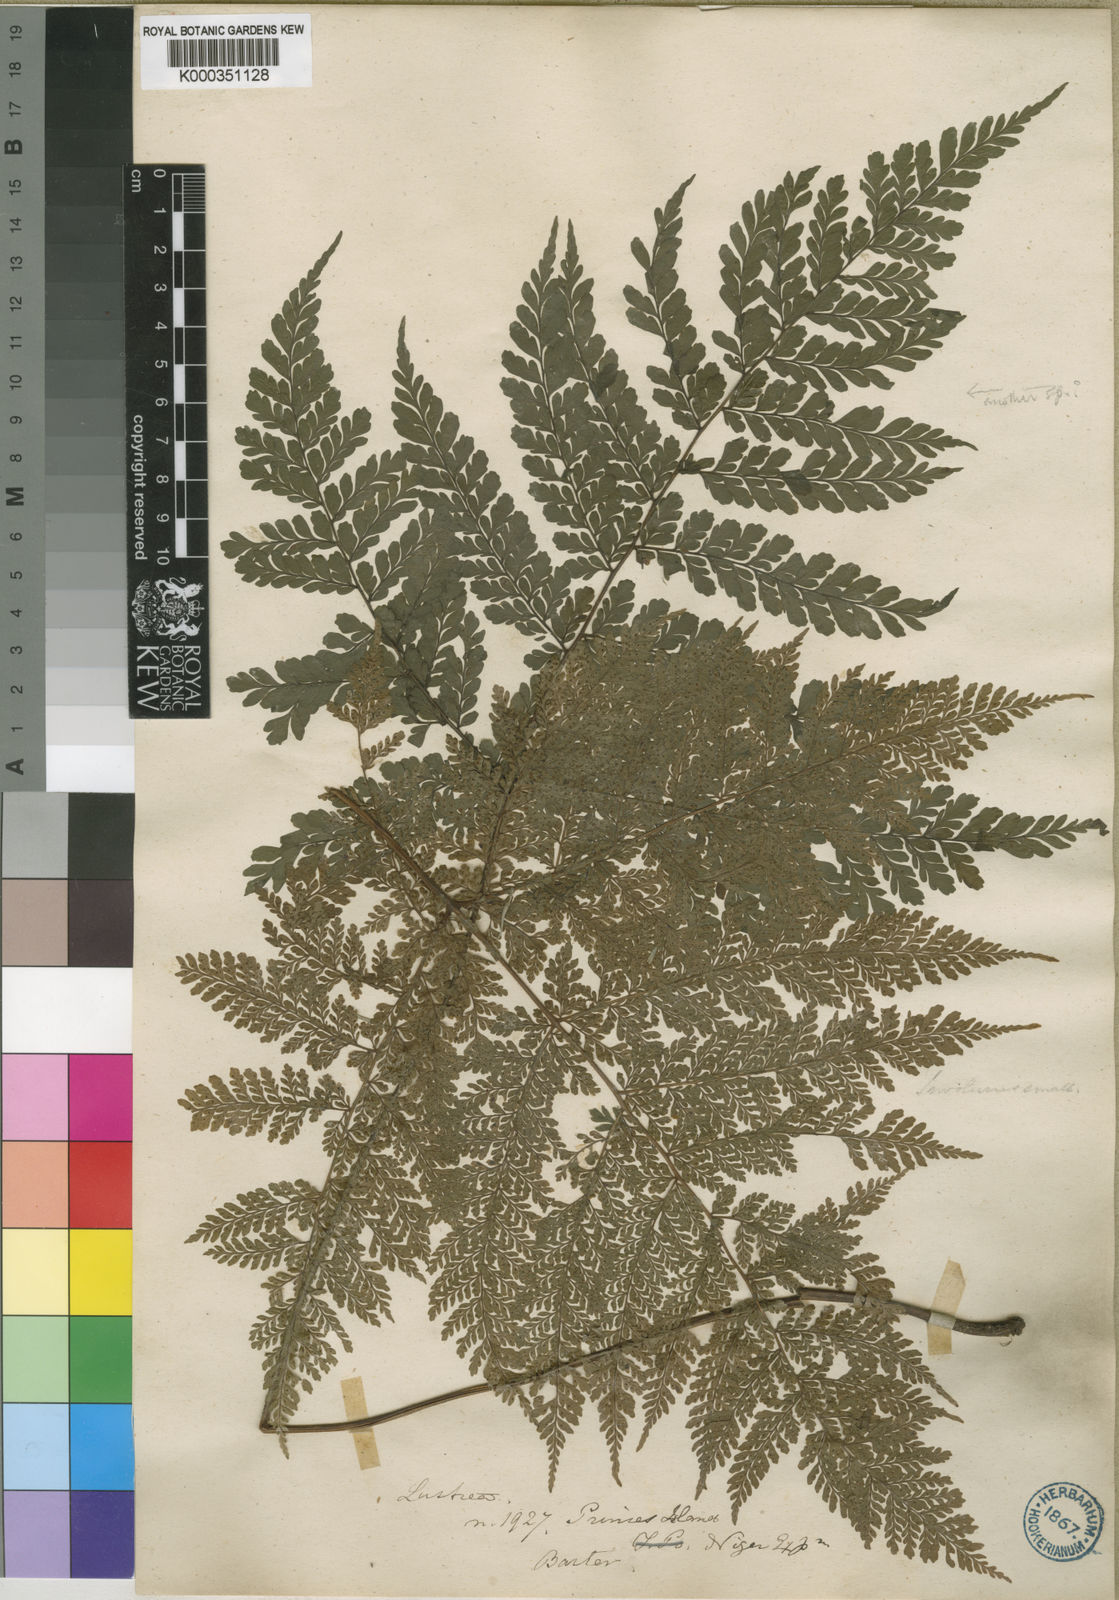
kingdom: Plantae
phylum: Tracheophyta
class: Polypodiopsida
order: Polypodiales
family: Tectariaceae
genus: Triplophyllum
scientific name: Triplophyllum principis
